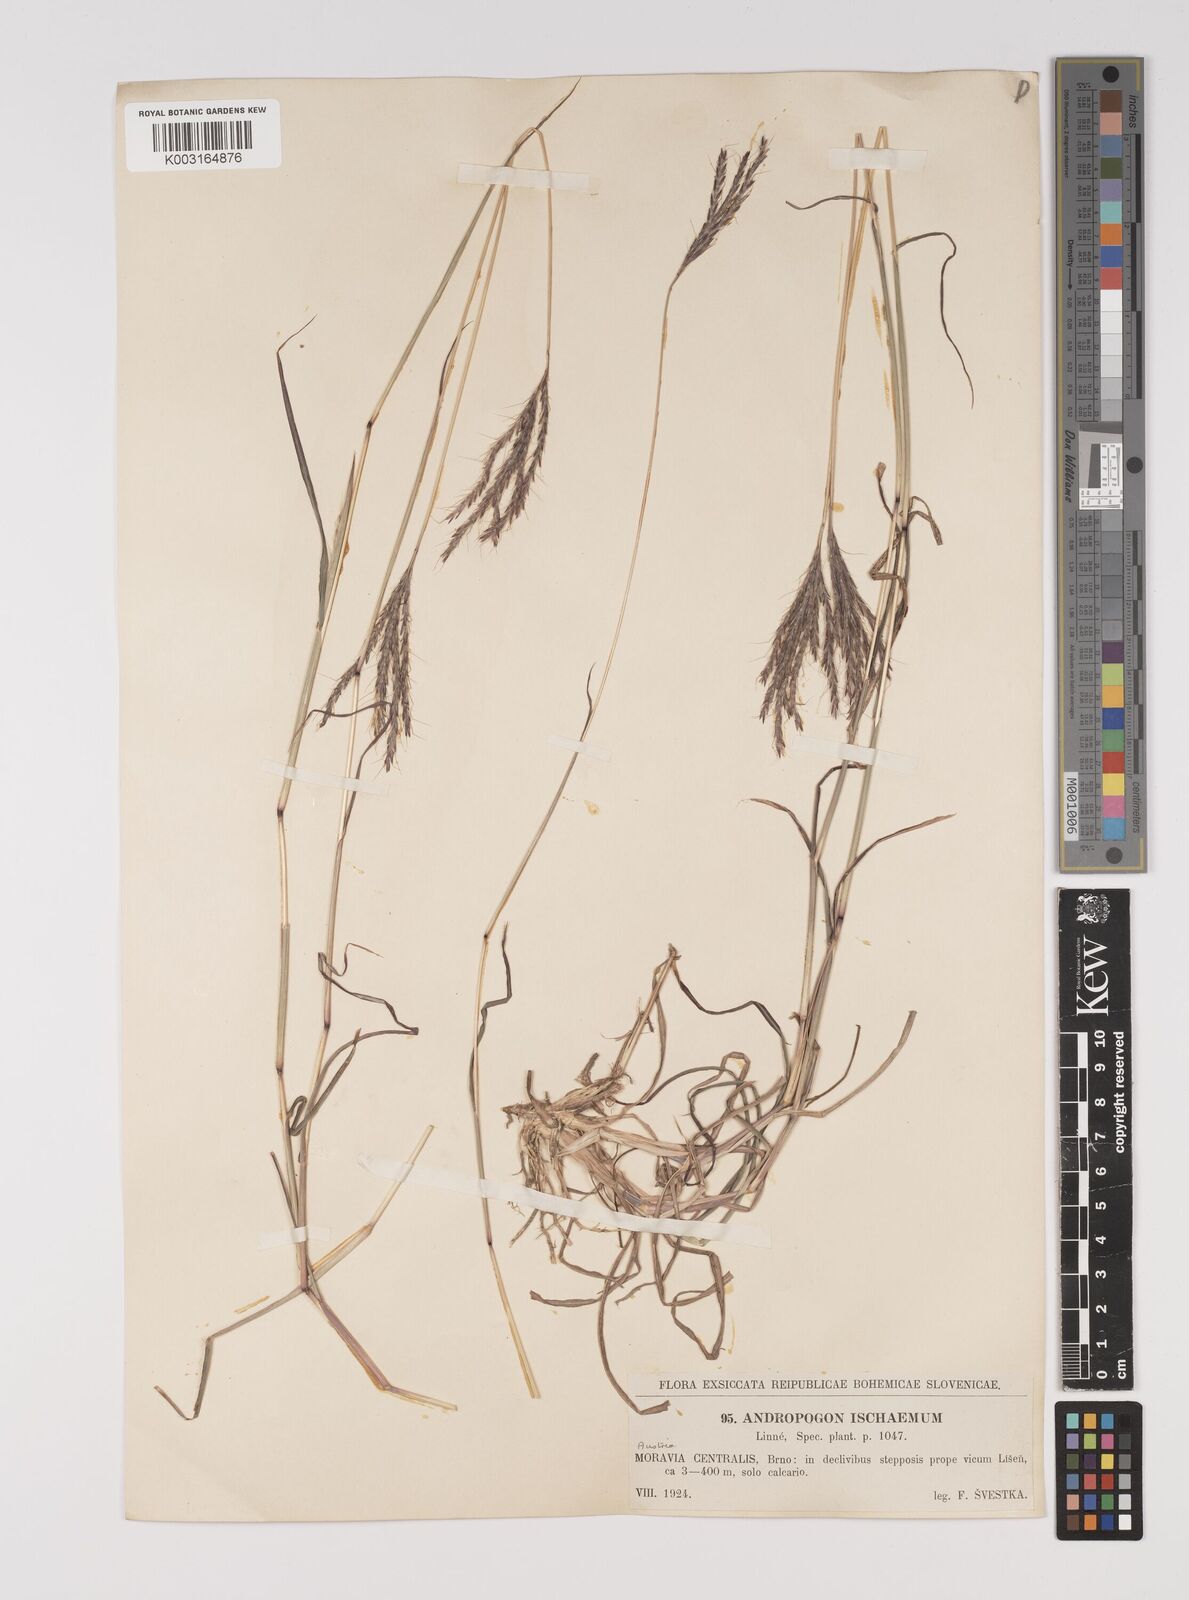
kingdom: Plantae
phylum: Tracheophyta
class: Liliopsida
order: Poales
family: Poaceae
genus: Bothriochloa
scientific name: Bothriochloa ischaemum
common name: Yellow bluestem
